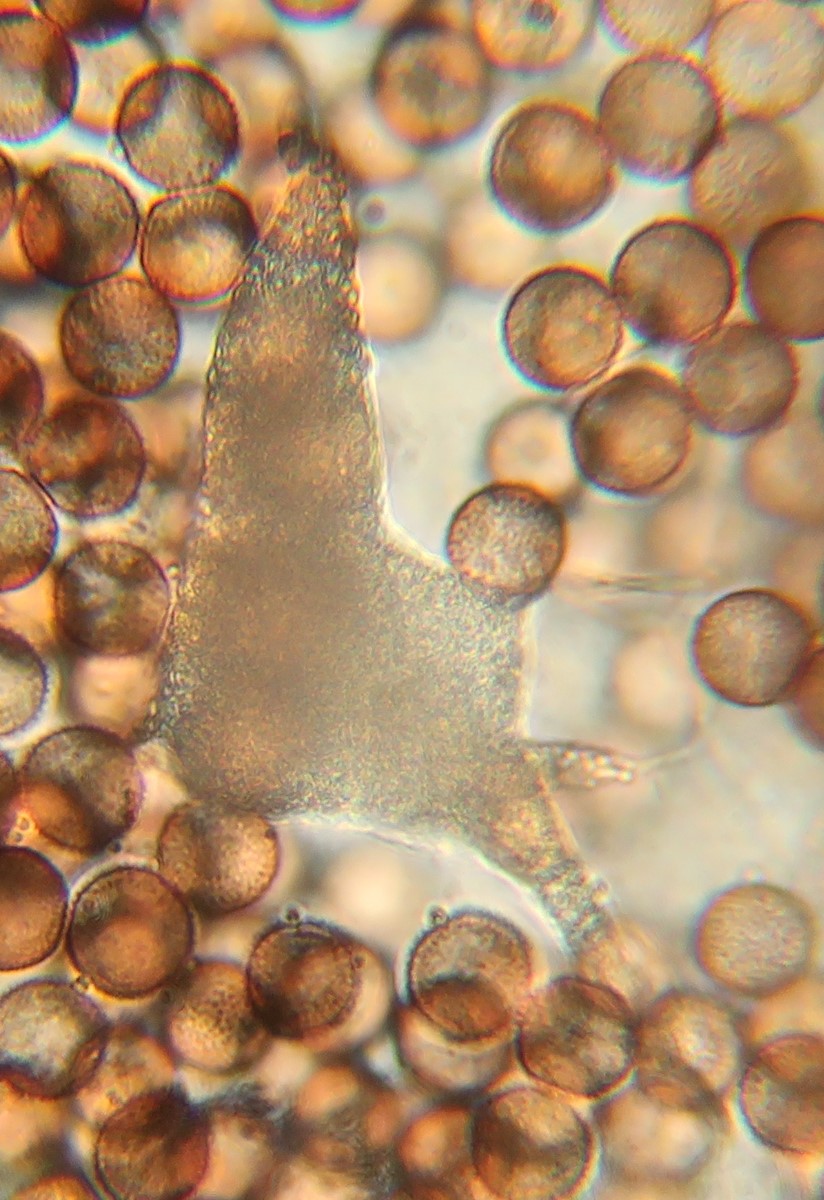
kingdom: Protozoa
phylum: Mycetozoa
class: Myxomycetes
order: Physarales
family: Physaraceae
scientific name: Physaraceae
